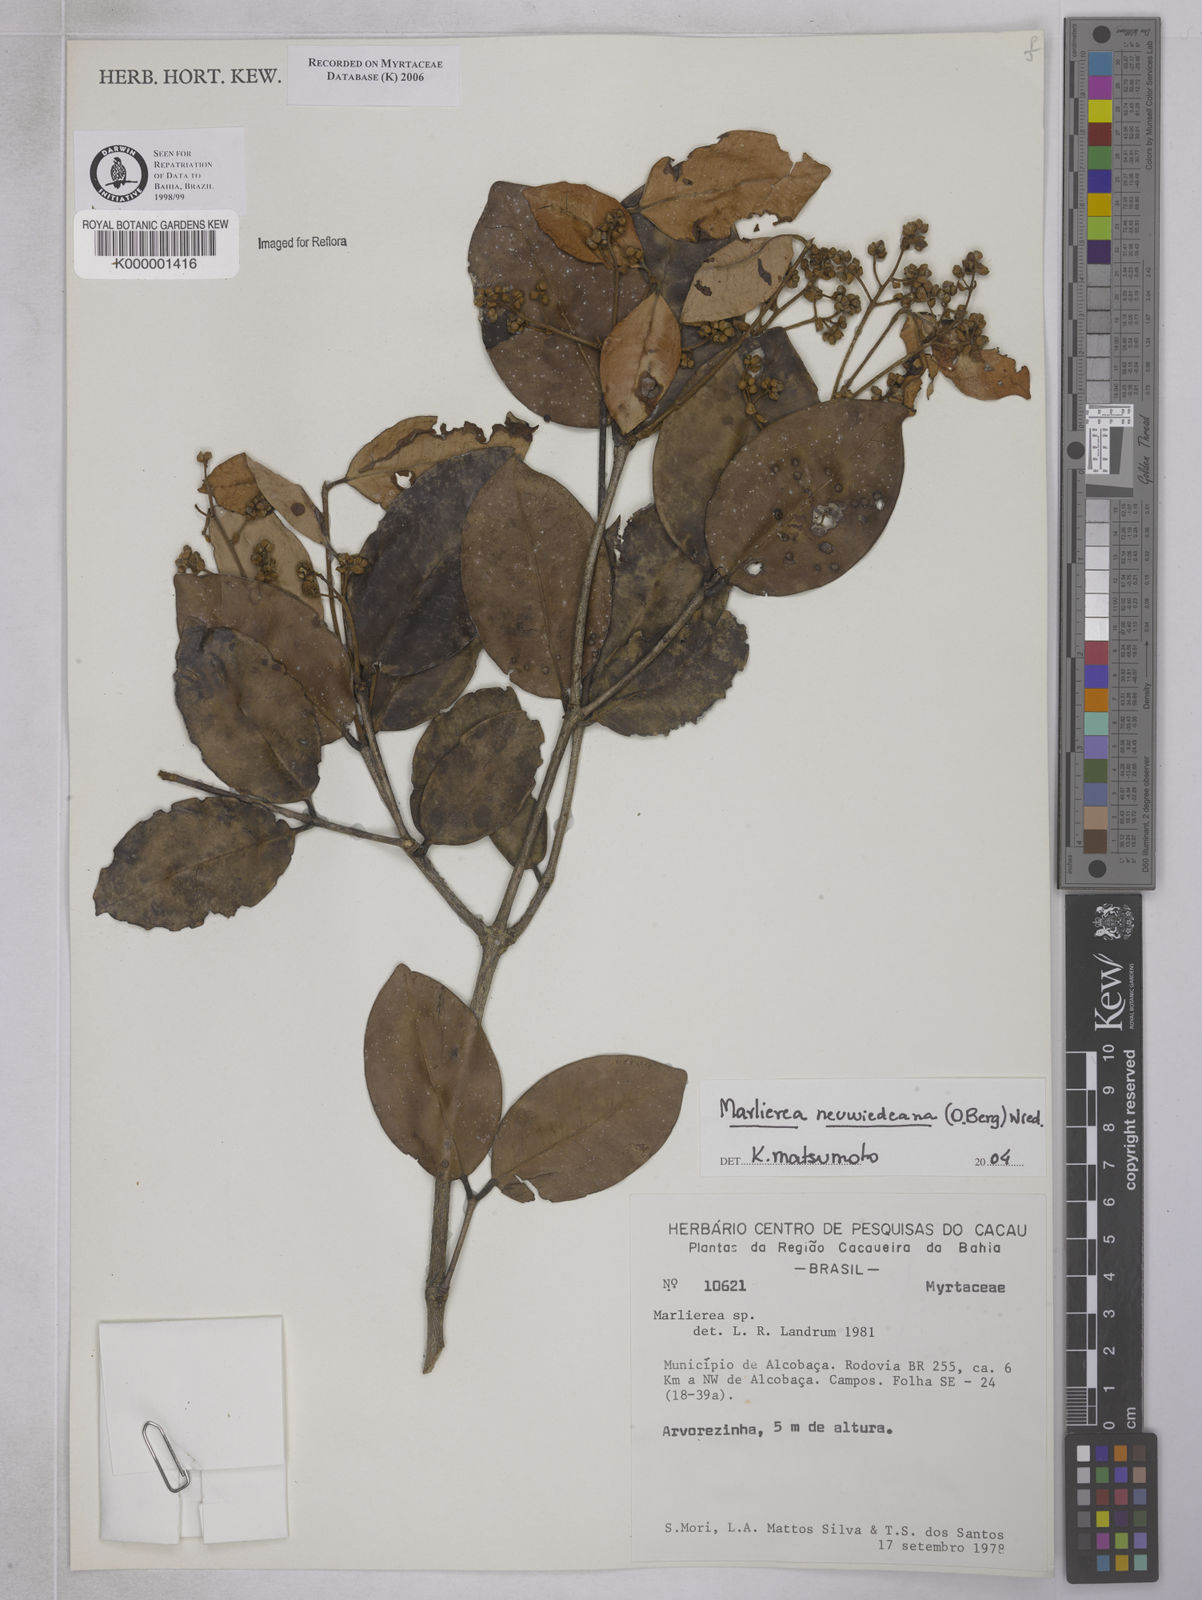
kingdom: Plantae
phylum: Tracheophyta
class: Magnoliopsida
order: Myrtales
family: Myrtaceae
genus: Marlierea
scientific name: Marlierea
